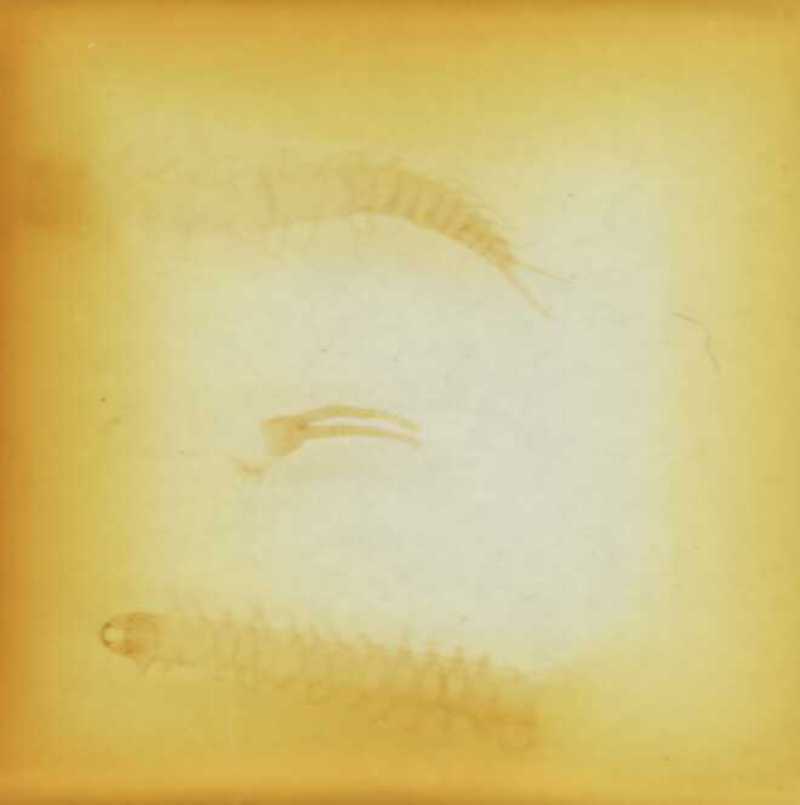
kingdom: Animalia
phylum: Arthropoda
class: Chilopoda
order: Geophilomorpha
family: Geophilidae
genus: Clinopodes
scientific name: Clinopodes trebevicensis
